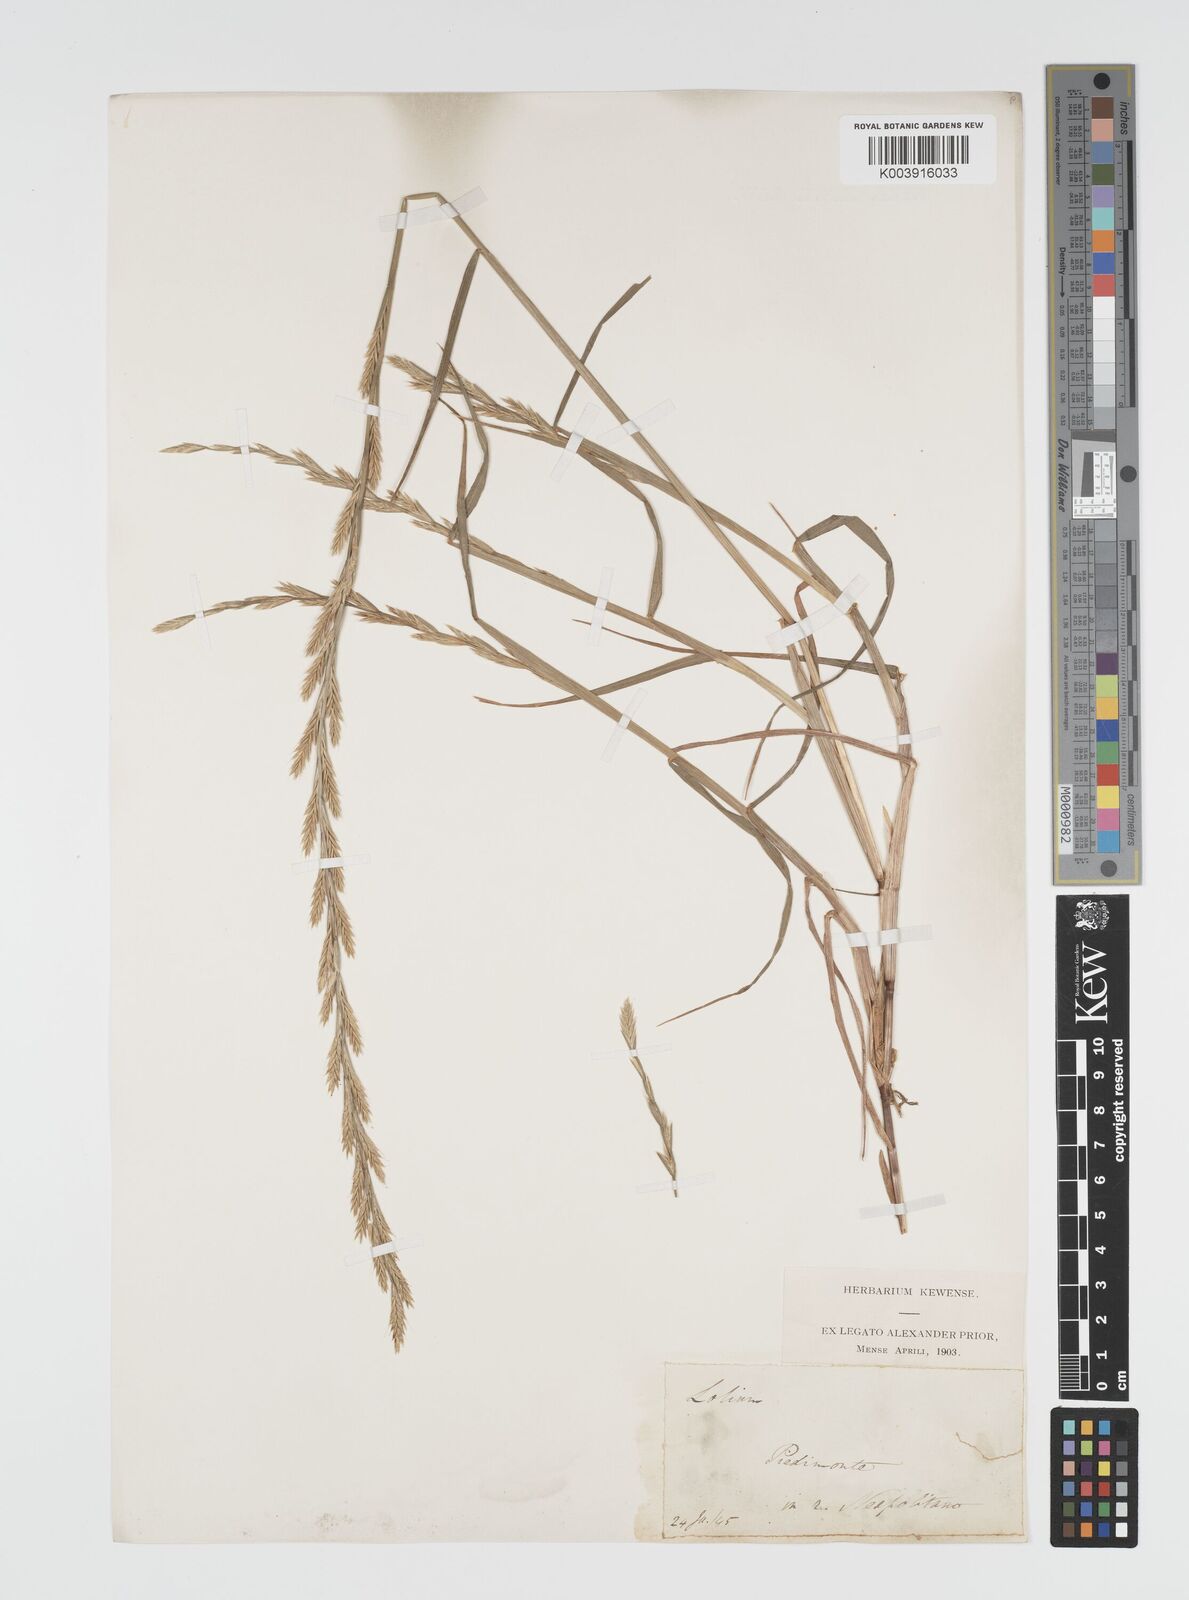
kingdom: Plantae
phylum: Tracheophyta
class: Liliopsida
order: Poales
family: Poaceae
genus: Lolium
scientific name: Lolium multiflorum
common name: Annual ryegrass
